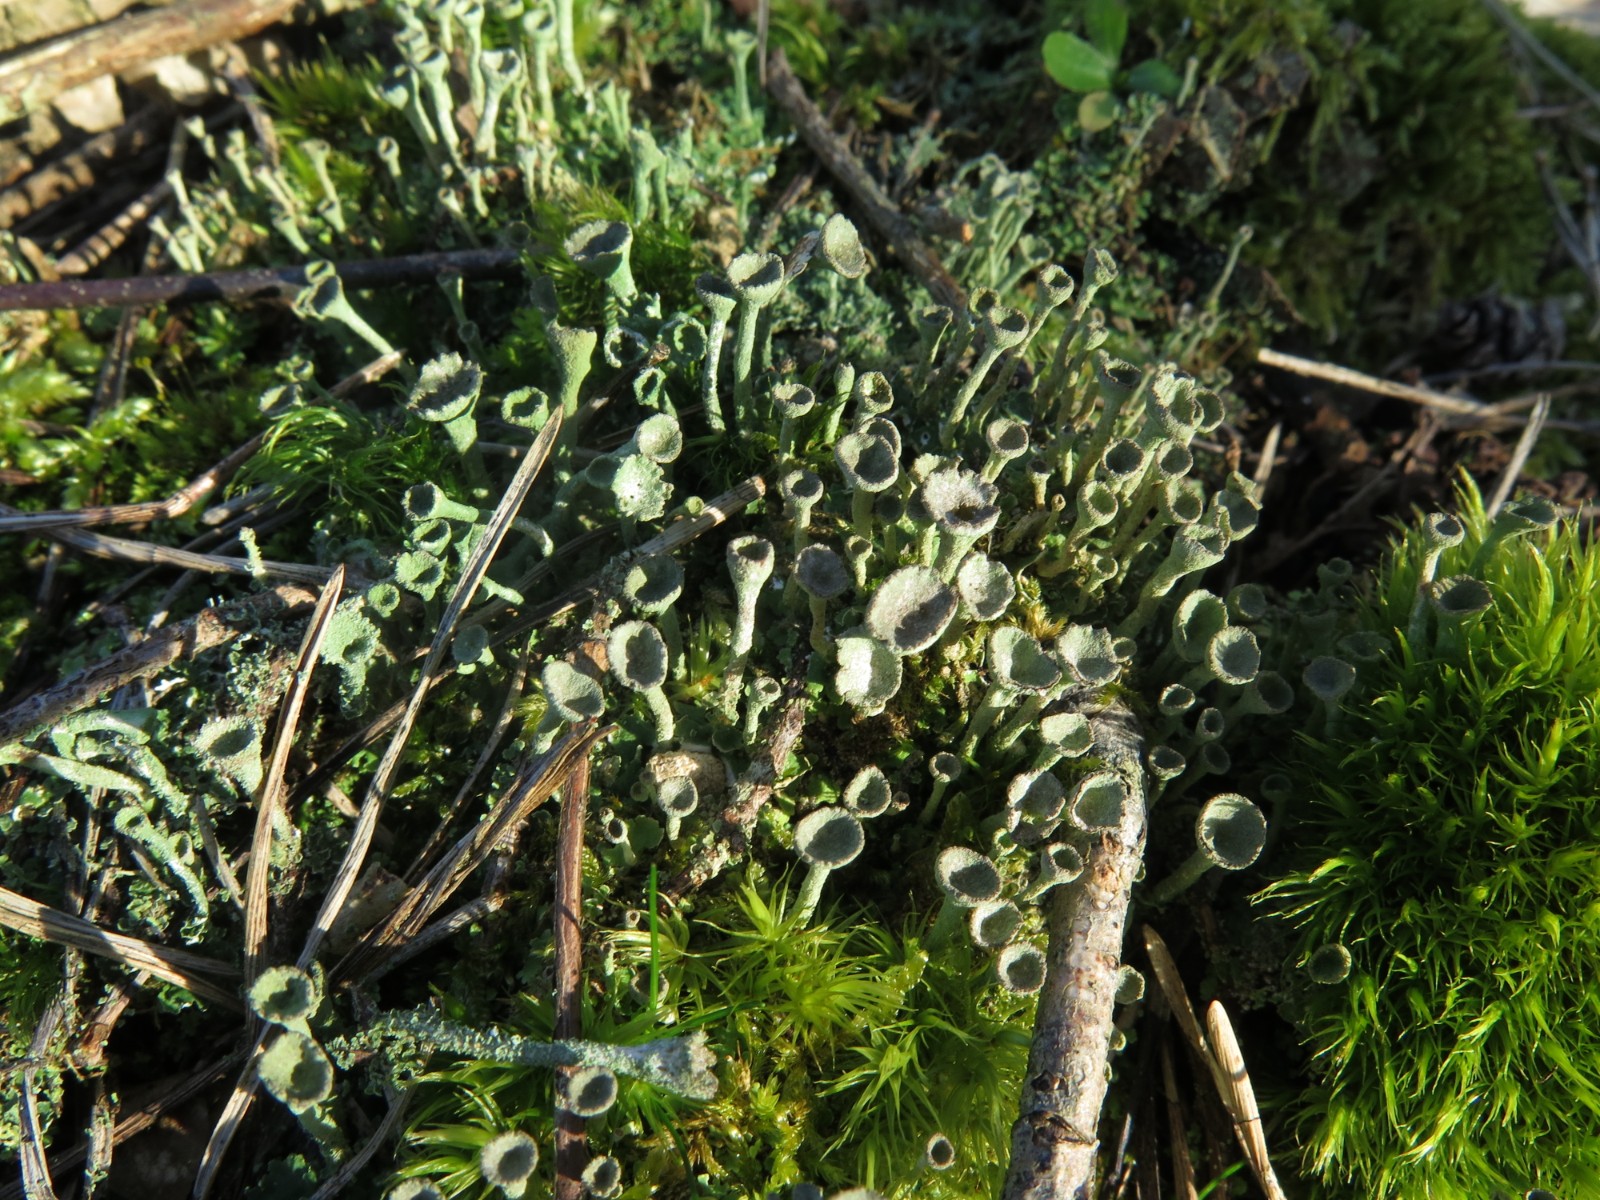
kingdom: Fungi
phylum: Ascomycota
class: Lecanoromycetes
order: Lecanorales
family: Cladoniaceae
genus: Cladonia
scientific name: Cladonia humilis
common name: lav bægerlav
